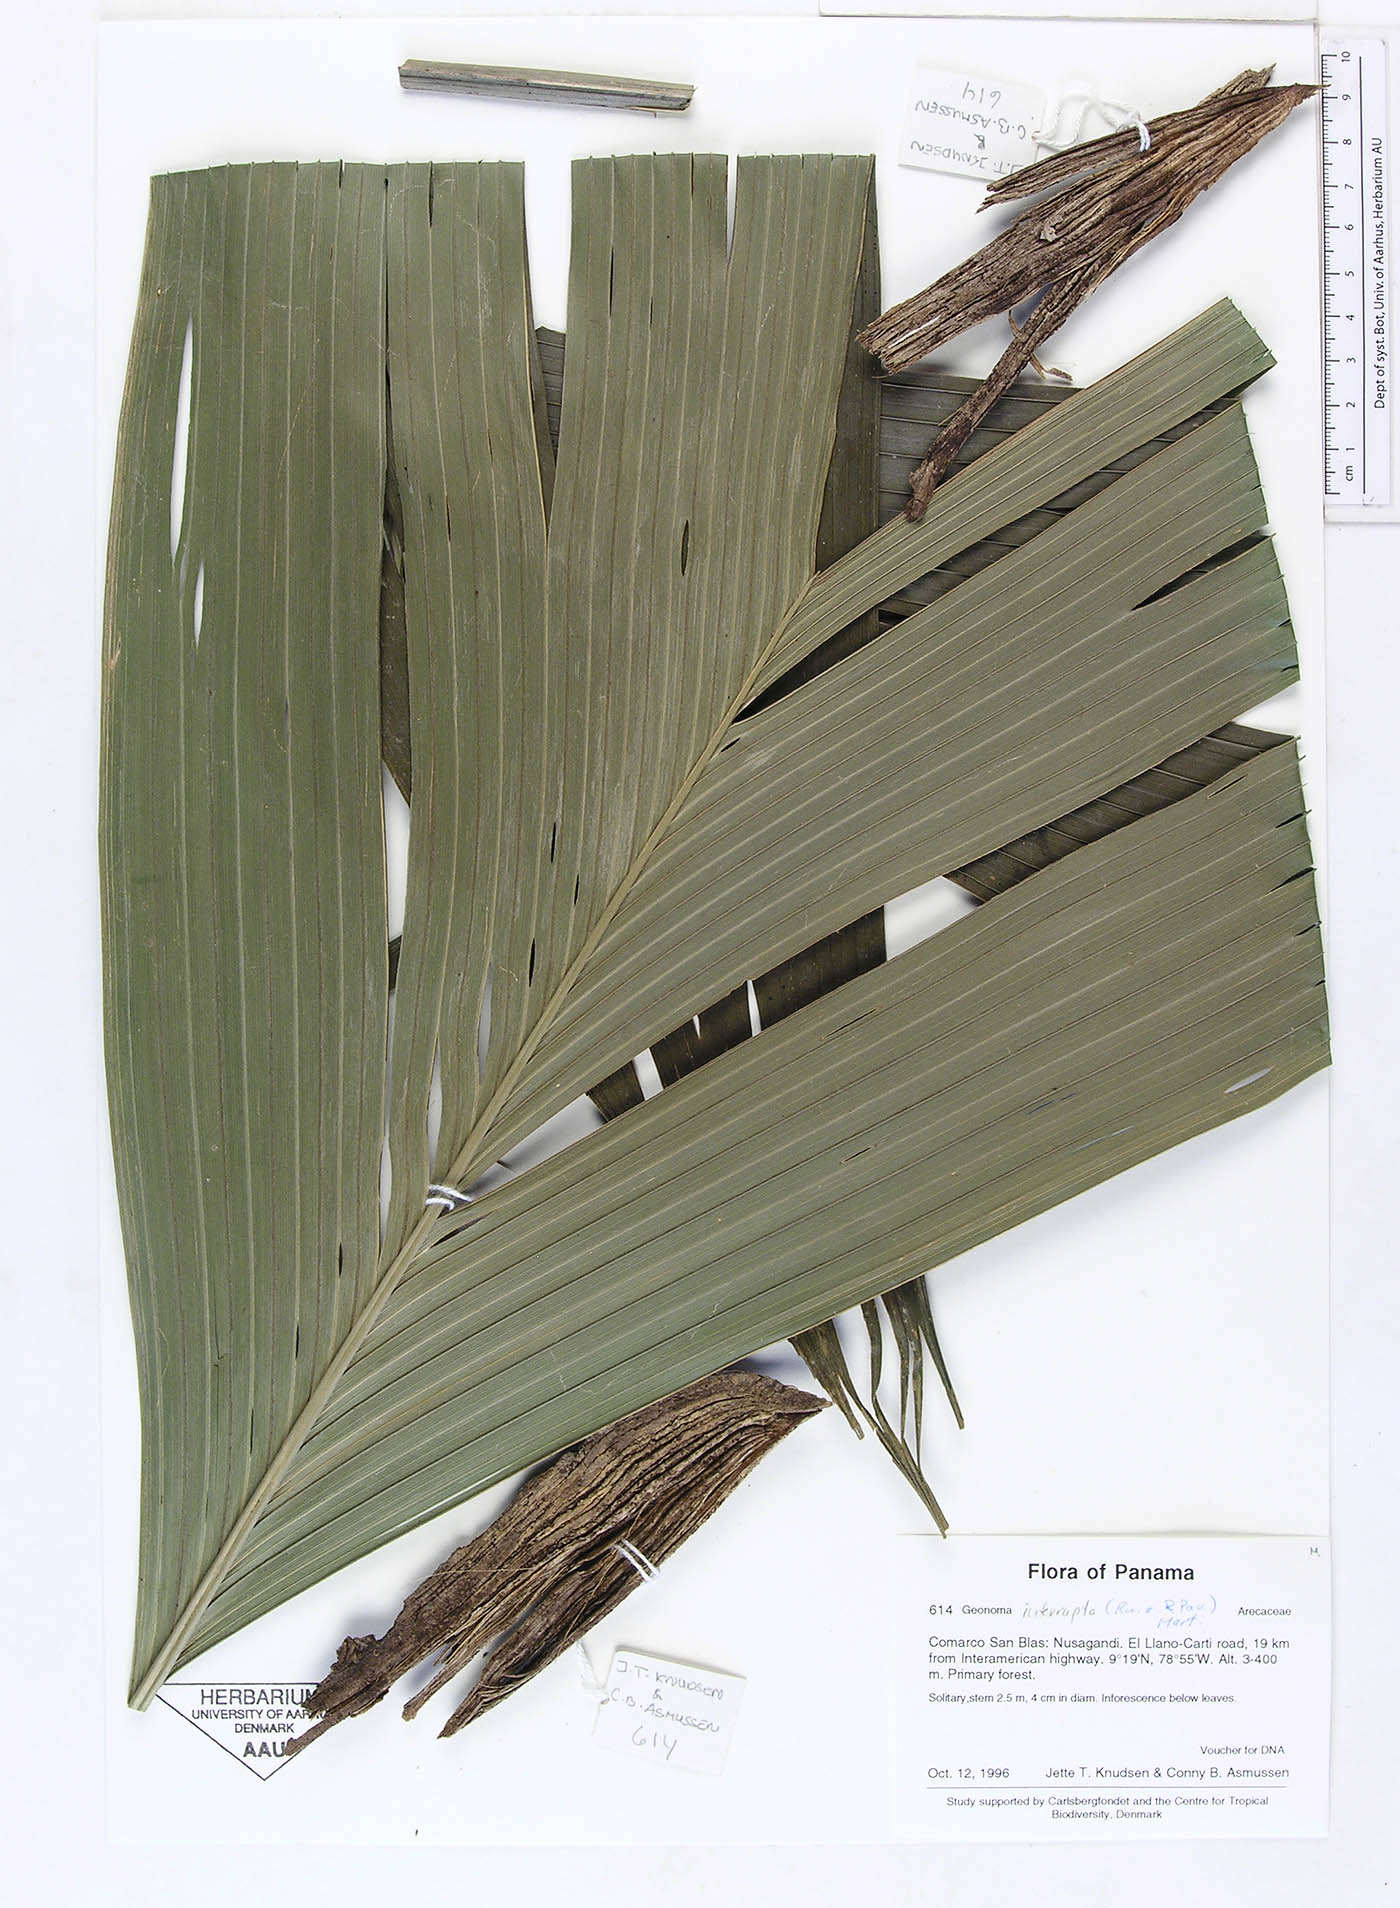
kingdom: Plantae
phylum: Tracheophyta
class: Liliopsida
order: Arecales
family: Arecaceae
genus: Geonoma
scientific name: Geonoma interrupta
